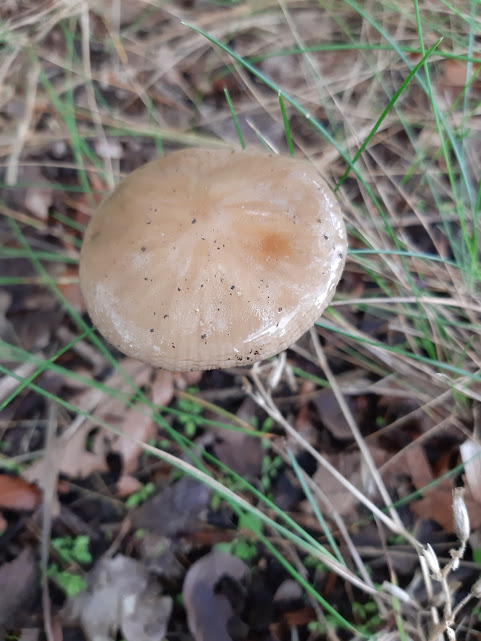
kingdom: Fungi
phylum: Basidiomycota
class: Agaricomycetes
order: Agaricales
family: Physalacriaceae
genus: Hymenopellis
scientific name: Hymenopellis radicata
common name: almindelig pælerodshat
